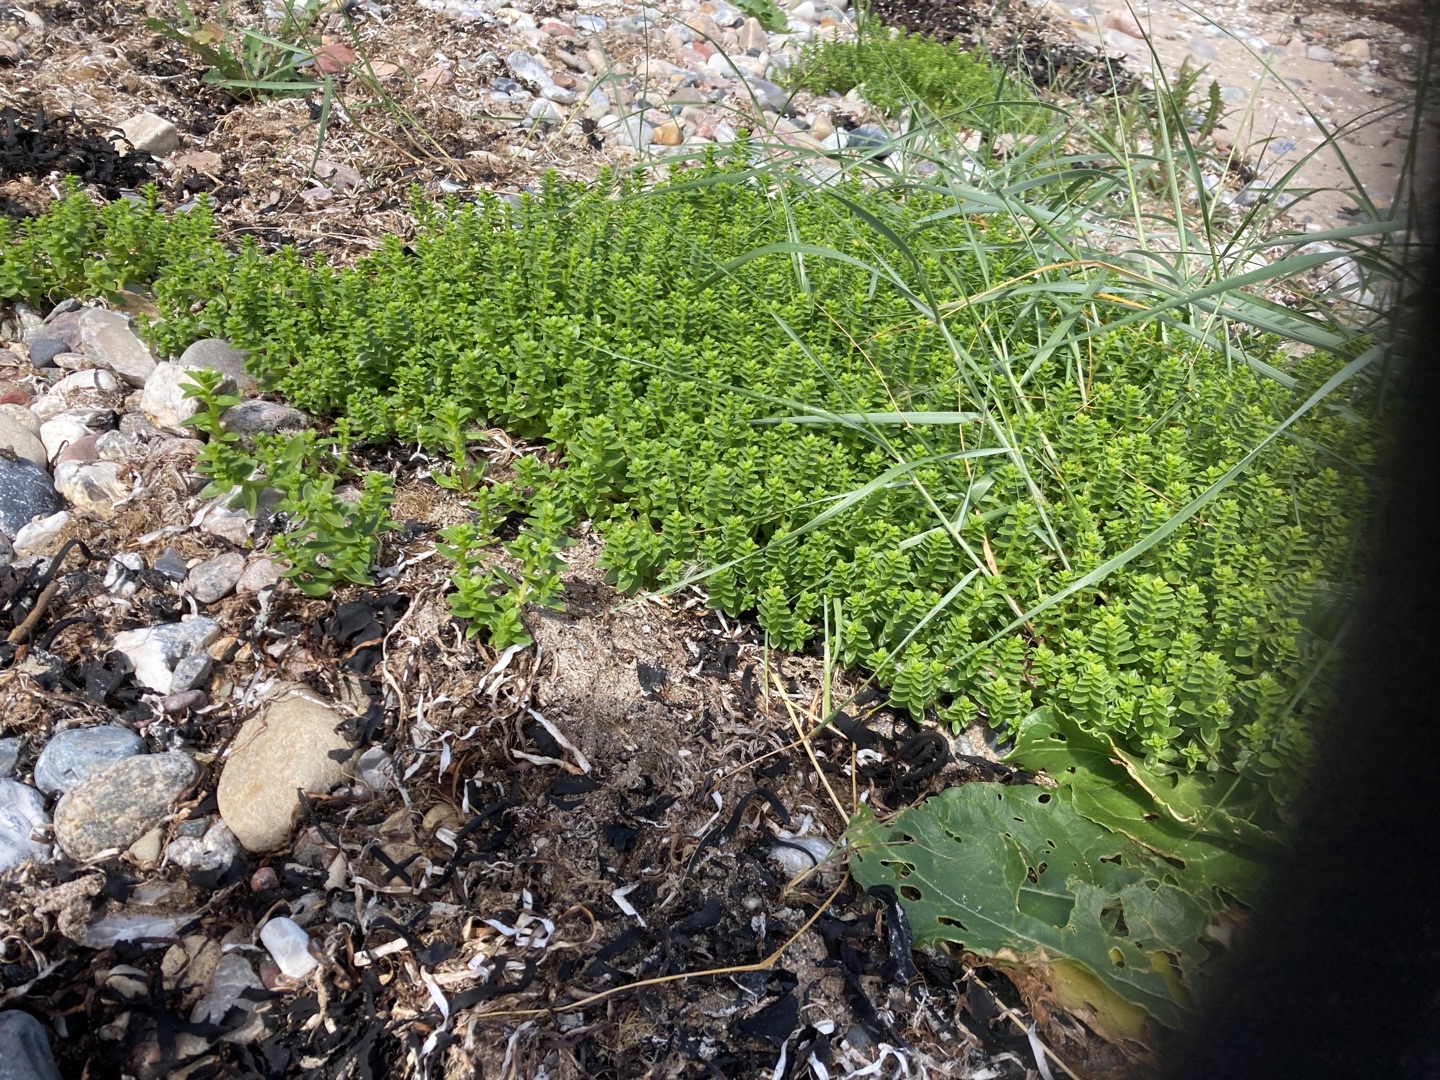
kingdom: Plantae
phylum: Tracheophyta
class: Magnoliopsida
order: Caryophyllales
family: Caryophyllaceae
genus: Honckenya
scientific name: Honckenya peploides
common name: Strandarve
